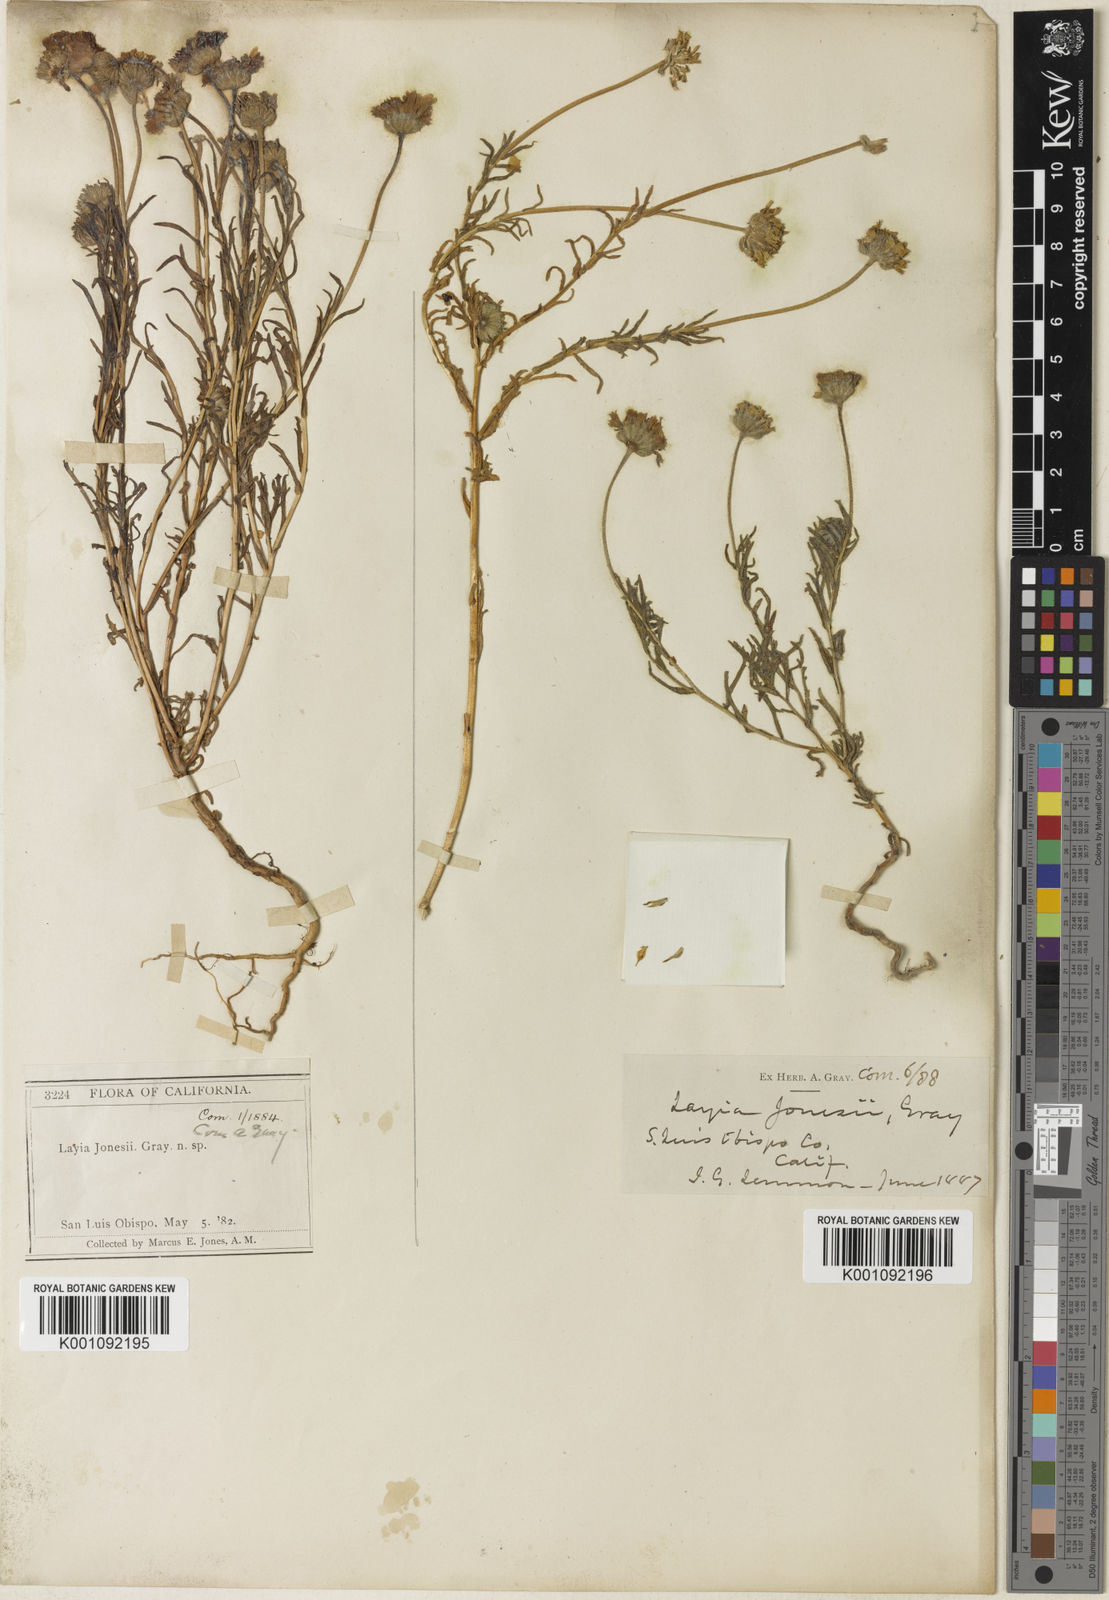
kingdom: Plantae
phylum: Tracheophyta
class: Magnoliopsida
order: Asterales
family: Asteraceae
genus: Layia
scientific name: Layia jonesii
